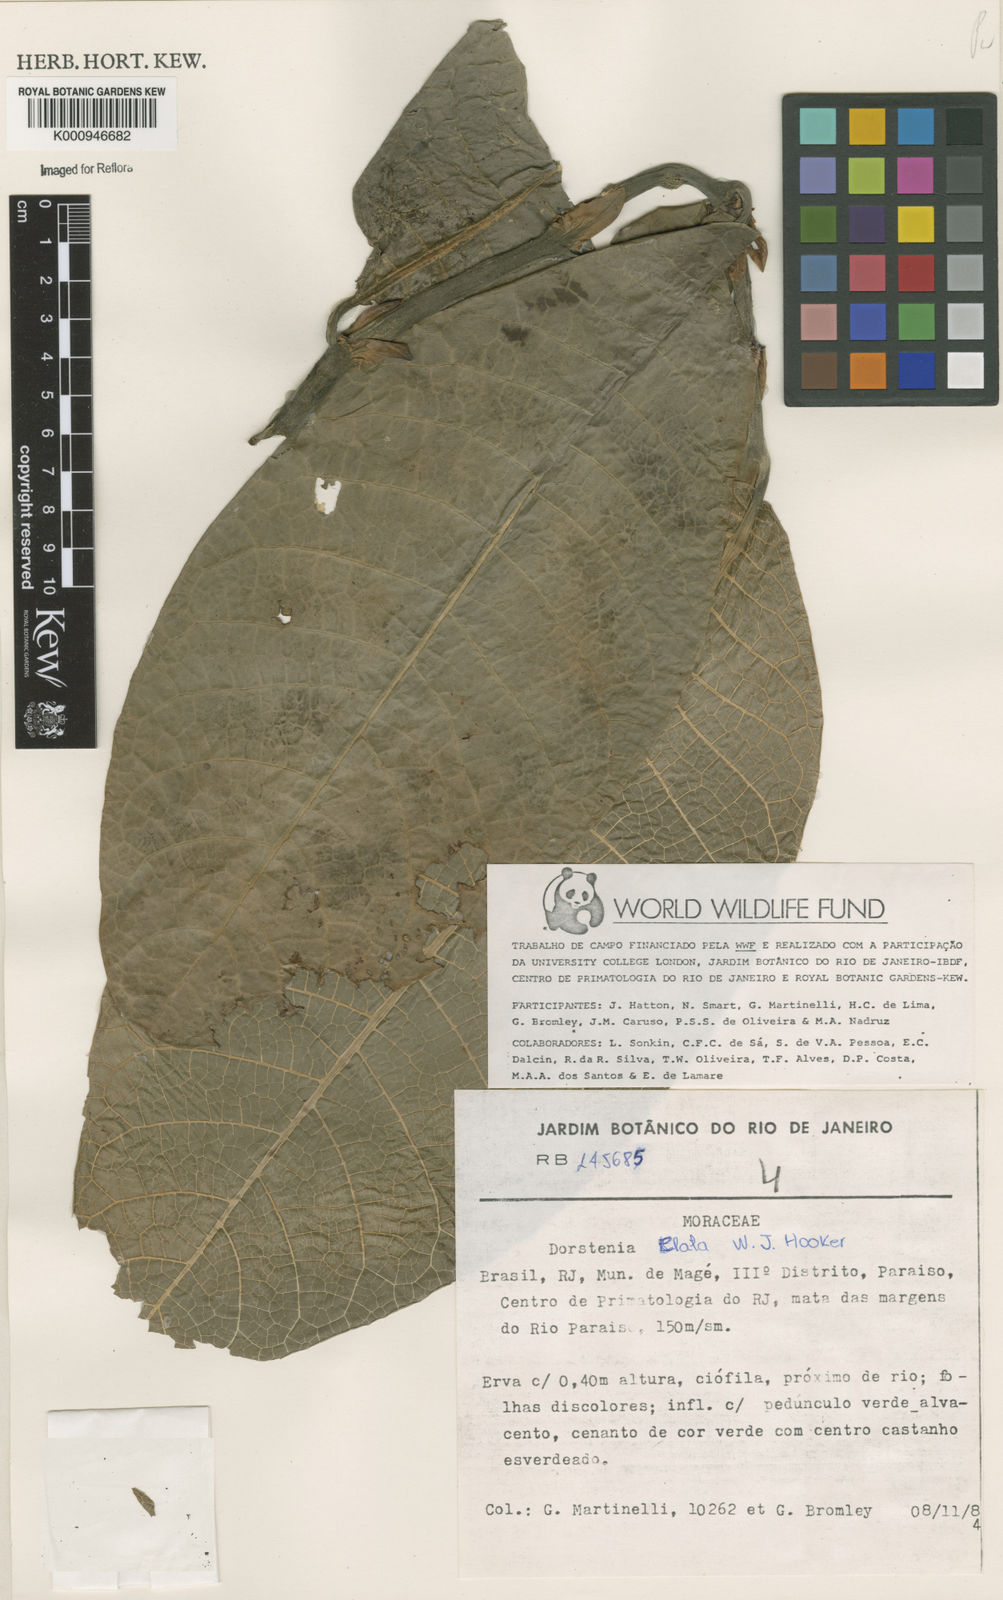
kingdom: Plantae
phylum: Tracheophyta
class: Magnoliopsida
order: Rosales
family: Moraceae
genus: Dorstenia
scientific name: Dorstenia
